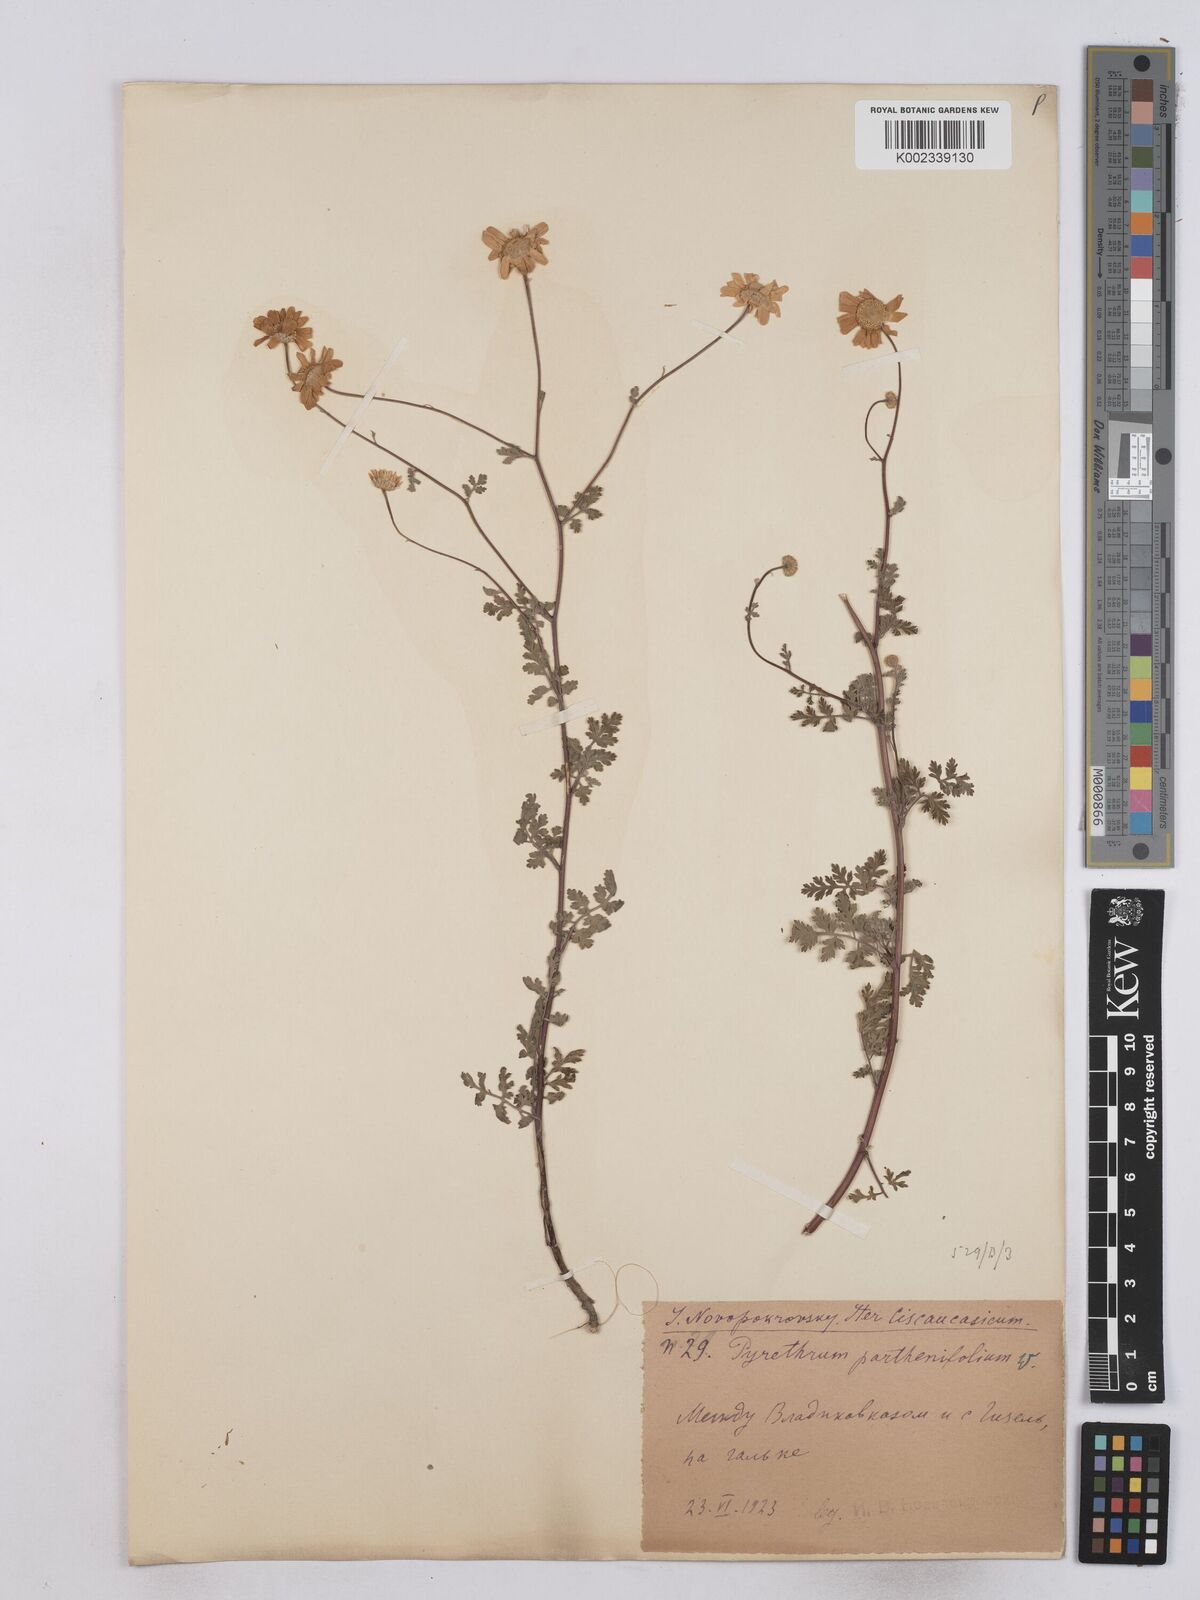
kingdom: Plantae
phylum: Tracheophyta
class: Magnoliopsida
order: Asterales
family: Asteraceae
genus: Tanacetum
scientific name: Tanacetum partheniifolium
